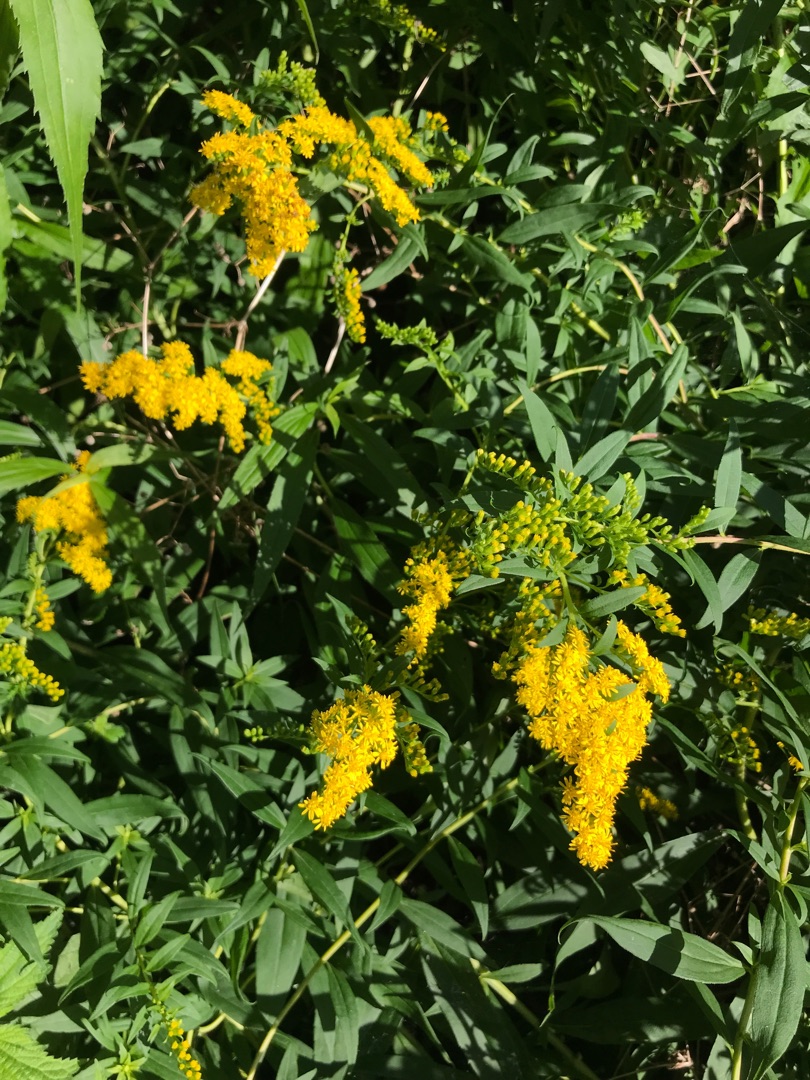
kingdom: Plantae
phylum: Tracheophyta
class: Magnoliopsida
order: Asterales
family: Asteraceae
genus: Solidago
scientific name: Solidago canadensis
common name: Kanadisk gyldenris
